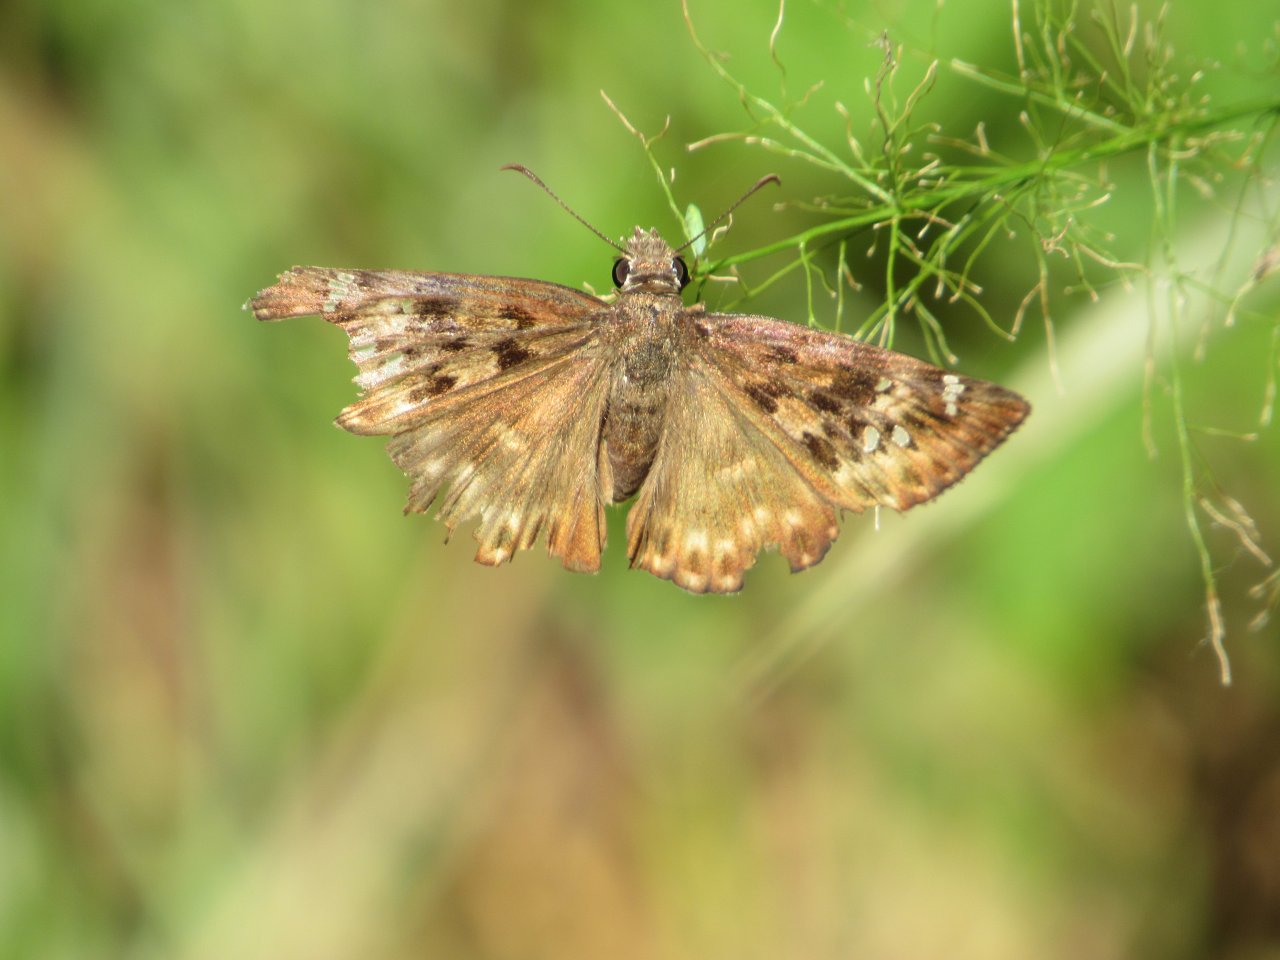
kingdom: Animalia
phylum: Arthropoda
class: Insecta
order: Lepidoptera
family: Hesperiidae
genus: Gesta
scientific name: Gesta
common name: Horace's Duskywing
